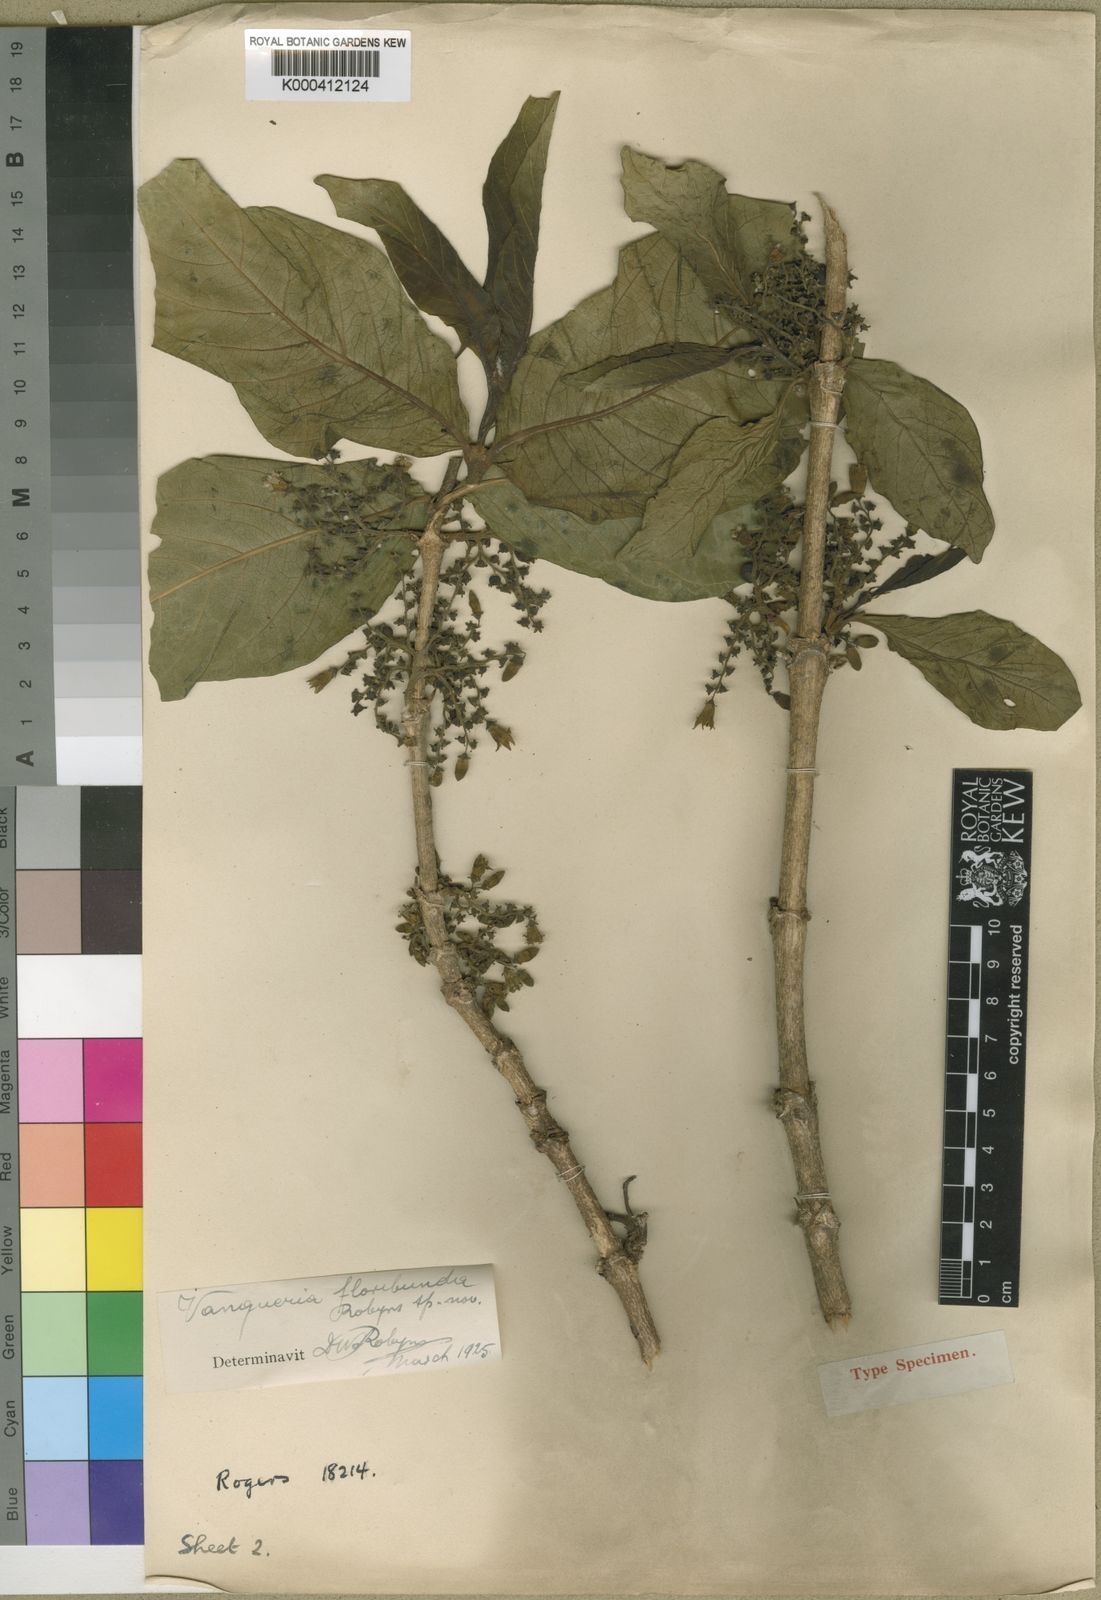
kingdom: Plantae
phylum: Tracheophyta
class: Magnoliopsida
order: Gentianales
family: Rubiaceae
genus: Vangueria
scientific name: Vangueria madagascariensis
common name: Smooth wild-medlar
